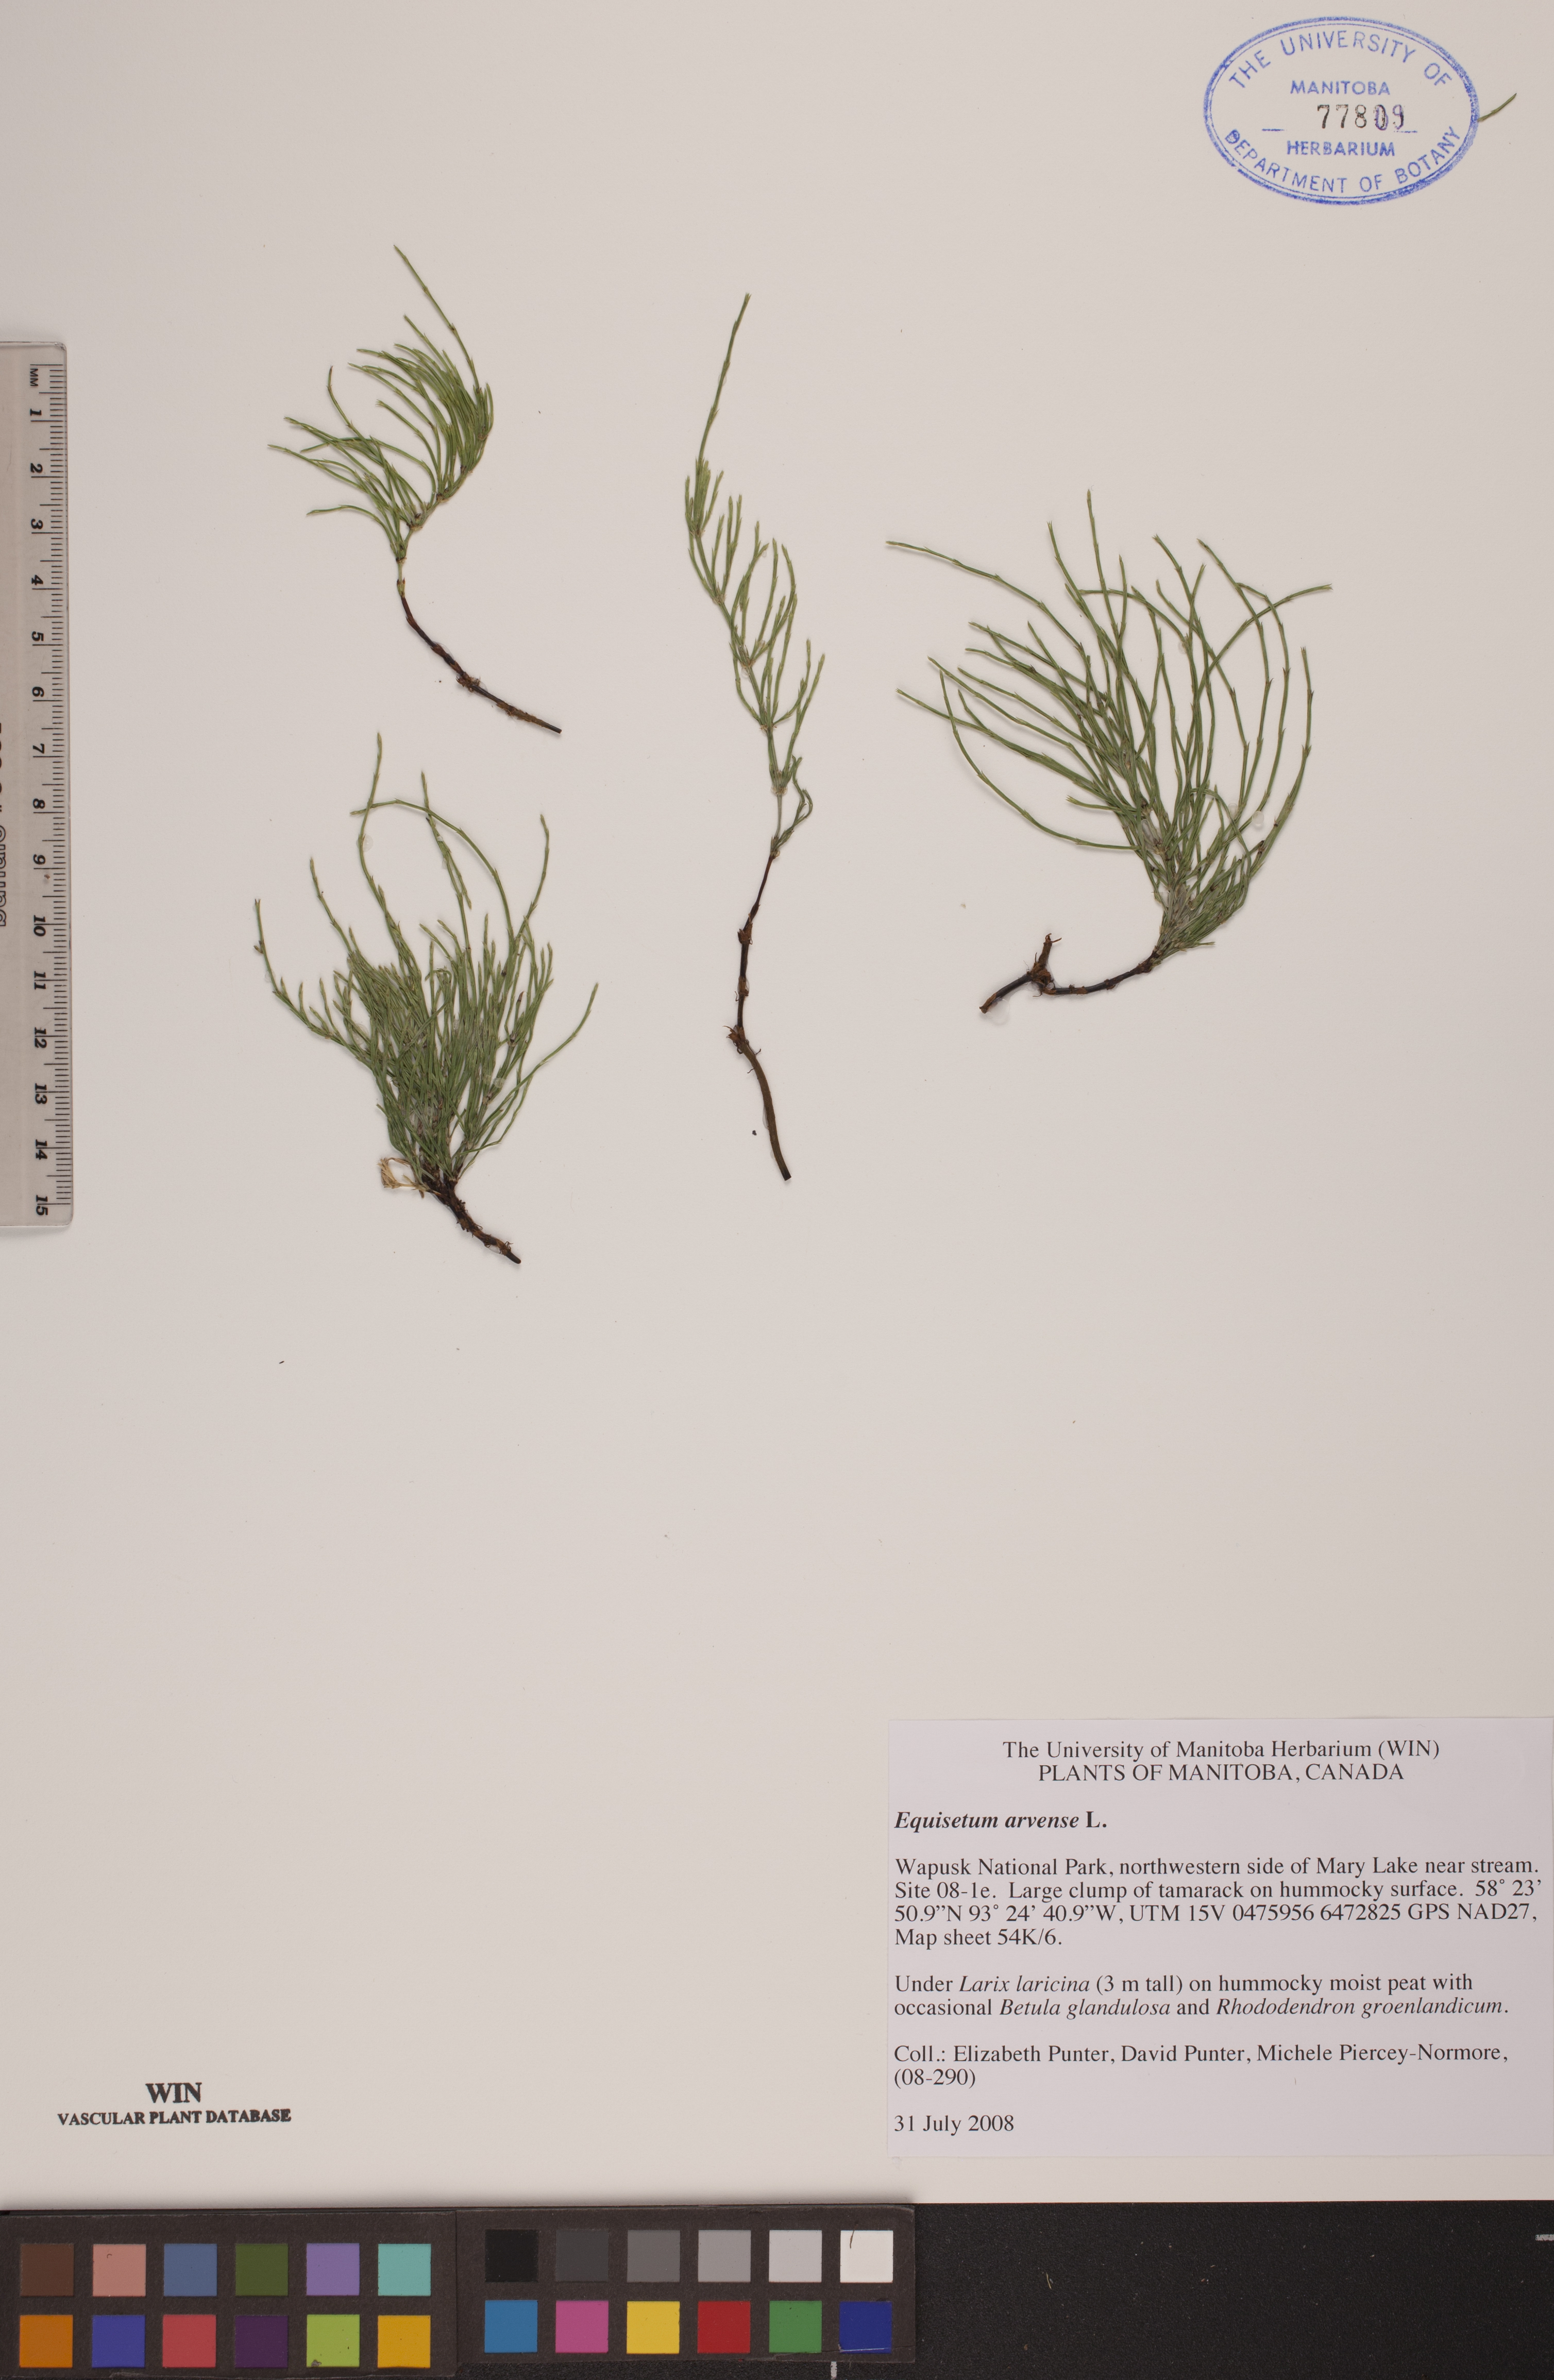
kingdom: Plantae
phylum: Tracheophyta
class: Polypodiopsida
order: Equisetales
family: Equisetaceae
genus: Equisetum
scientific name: Equisetum arvense
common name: Field horsetail
